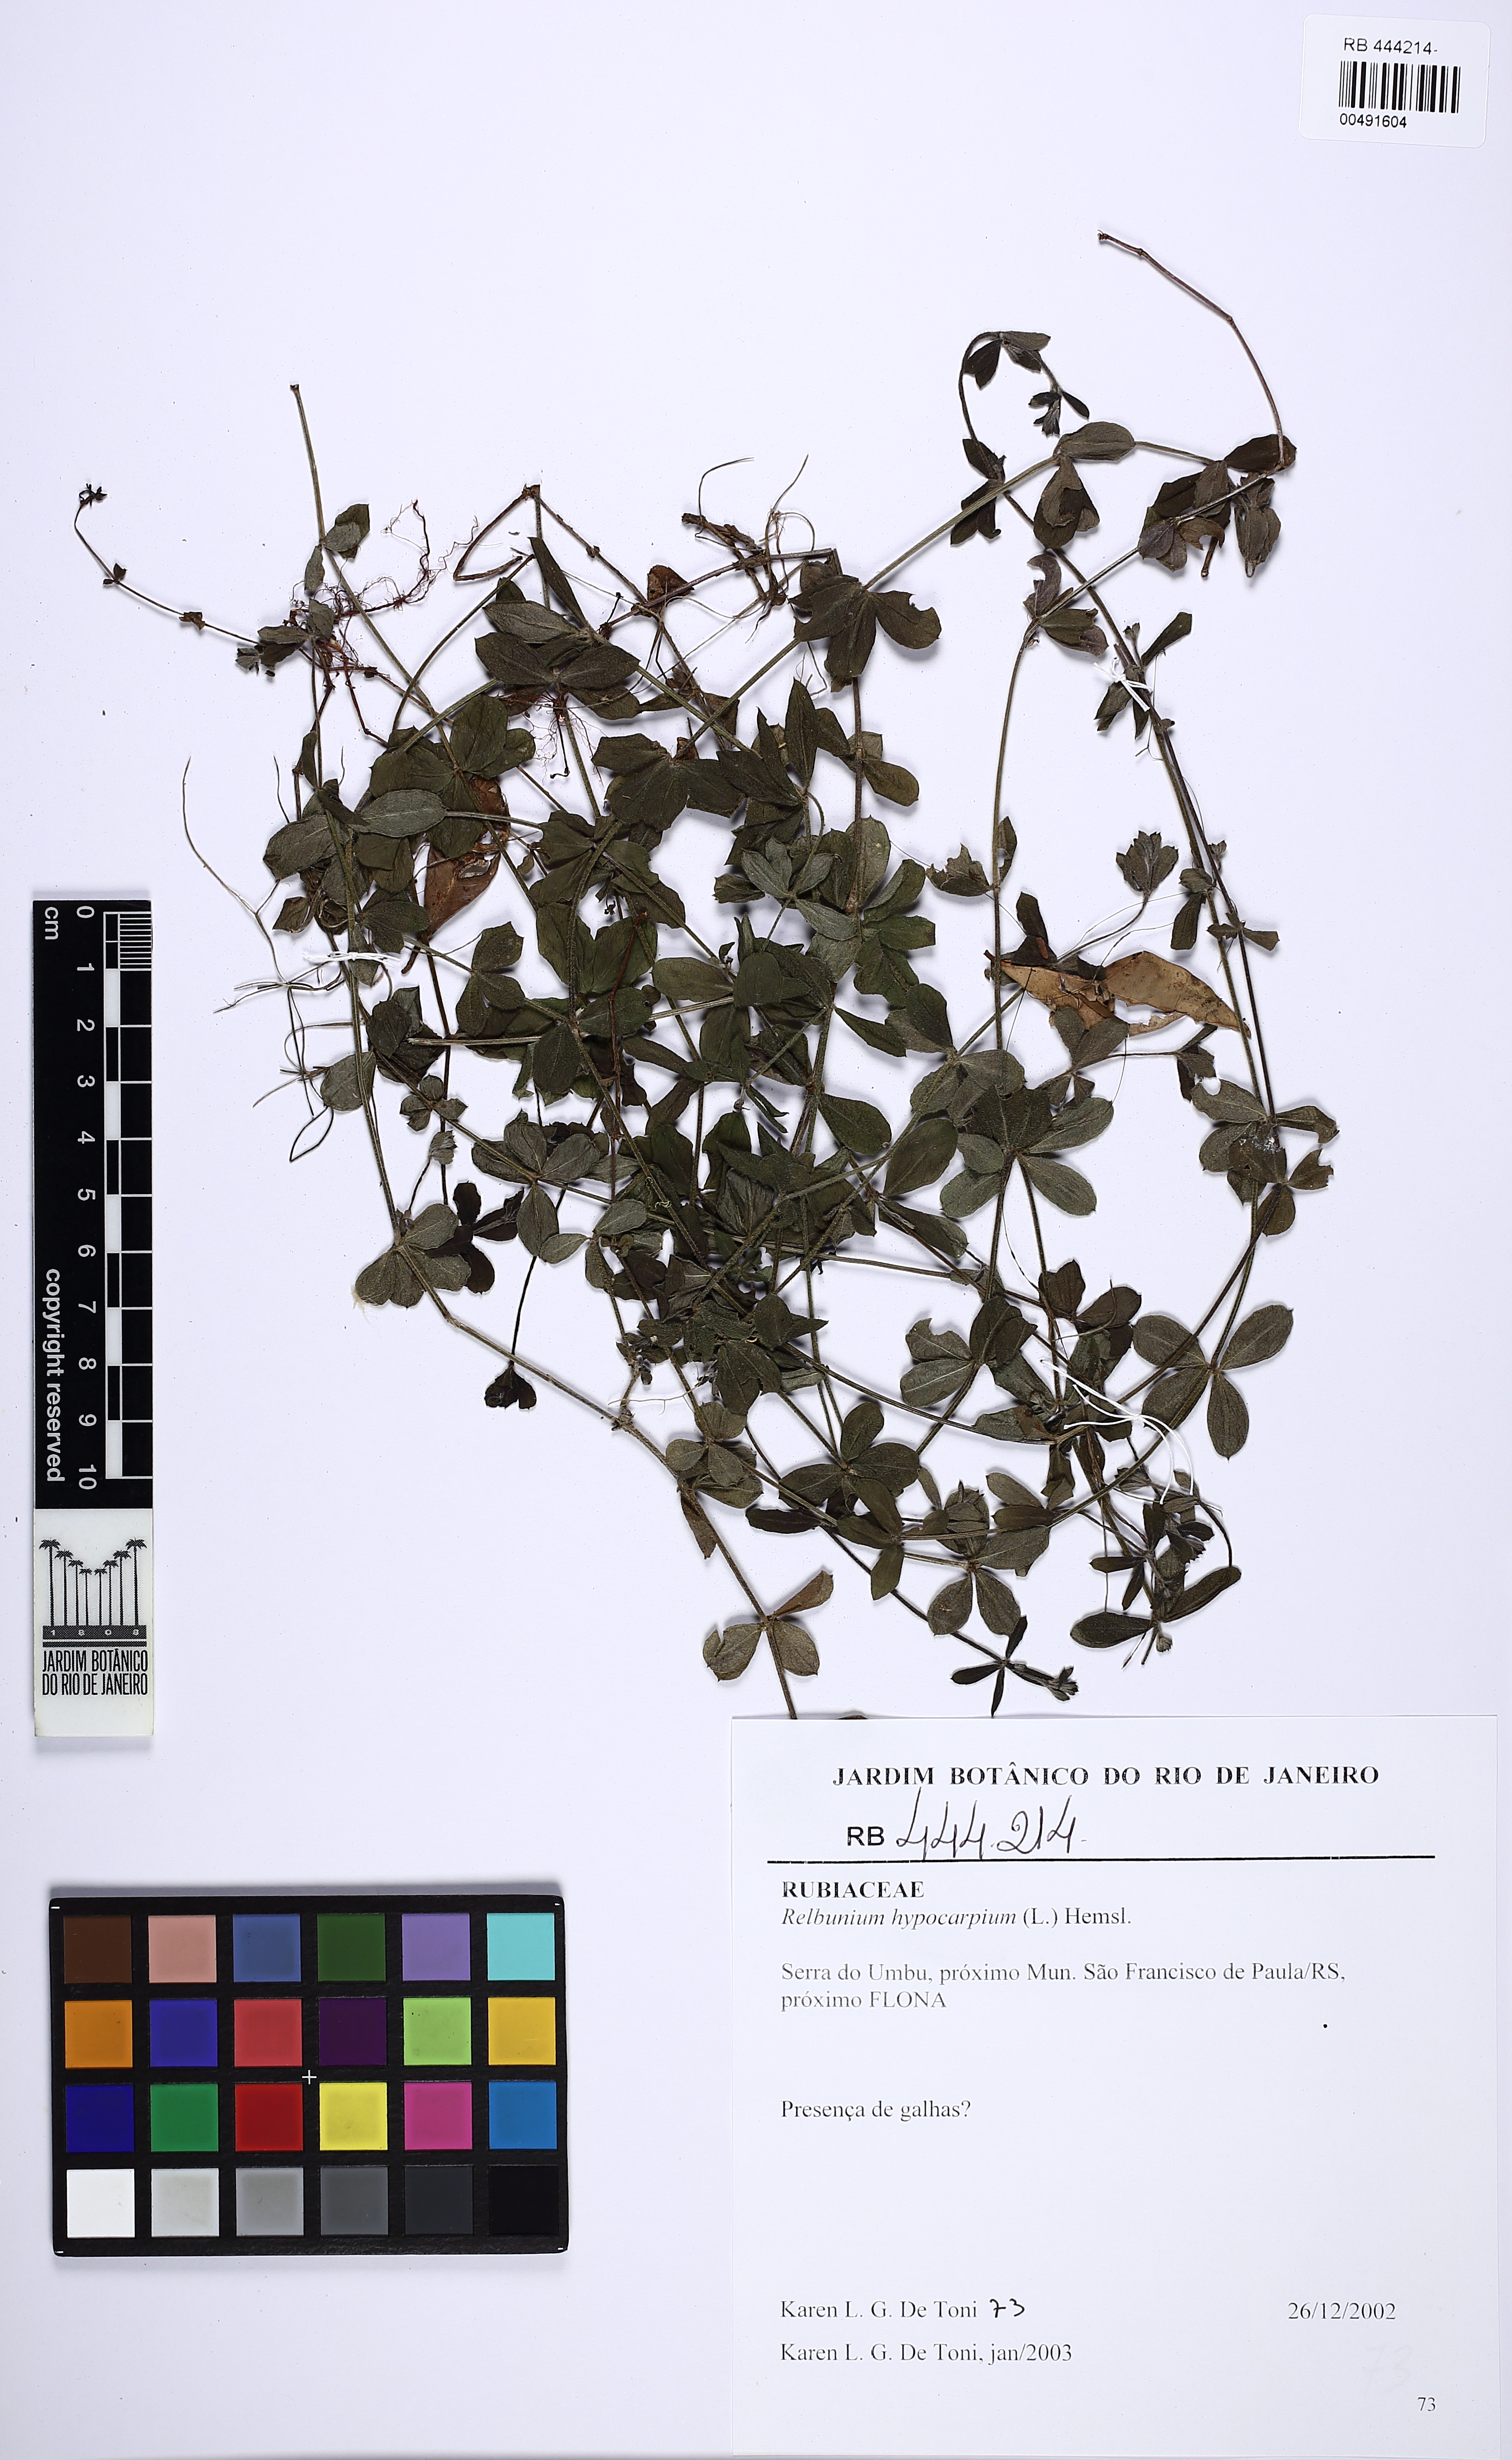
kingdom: Plantae
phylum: Tracheophyta
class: Magnoliopsida
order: Gentianales
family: Rubiaceae
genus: Galium
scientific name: Galium hypocarpium
